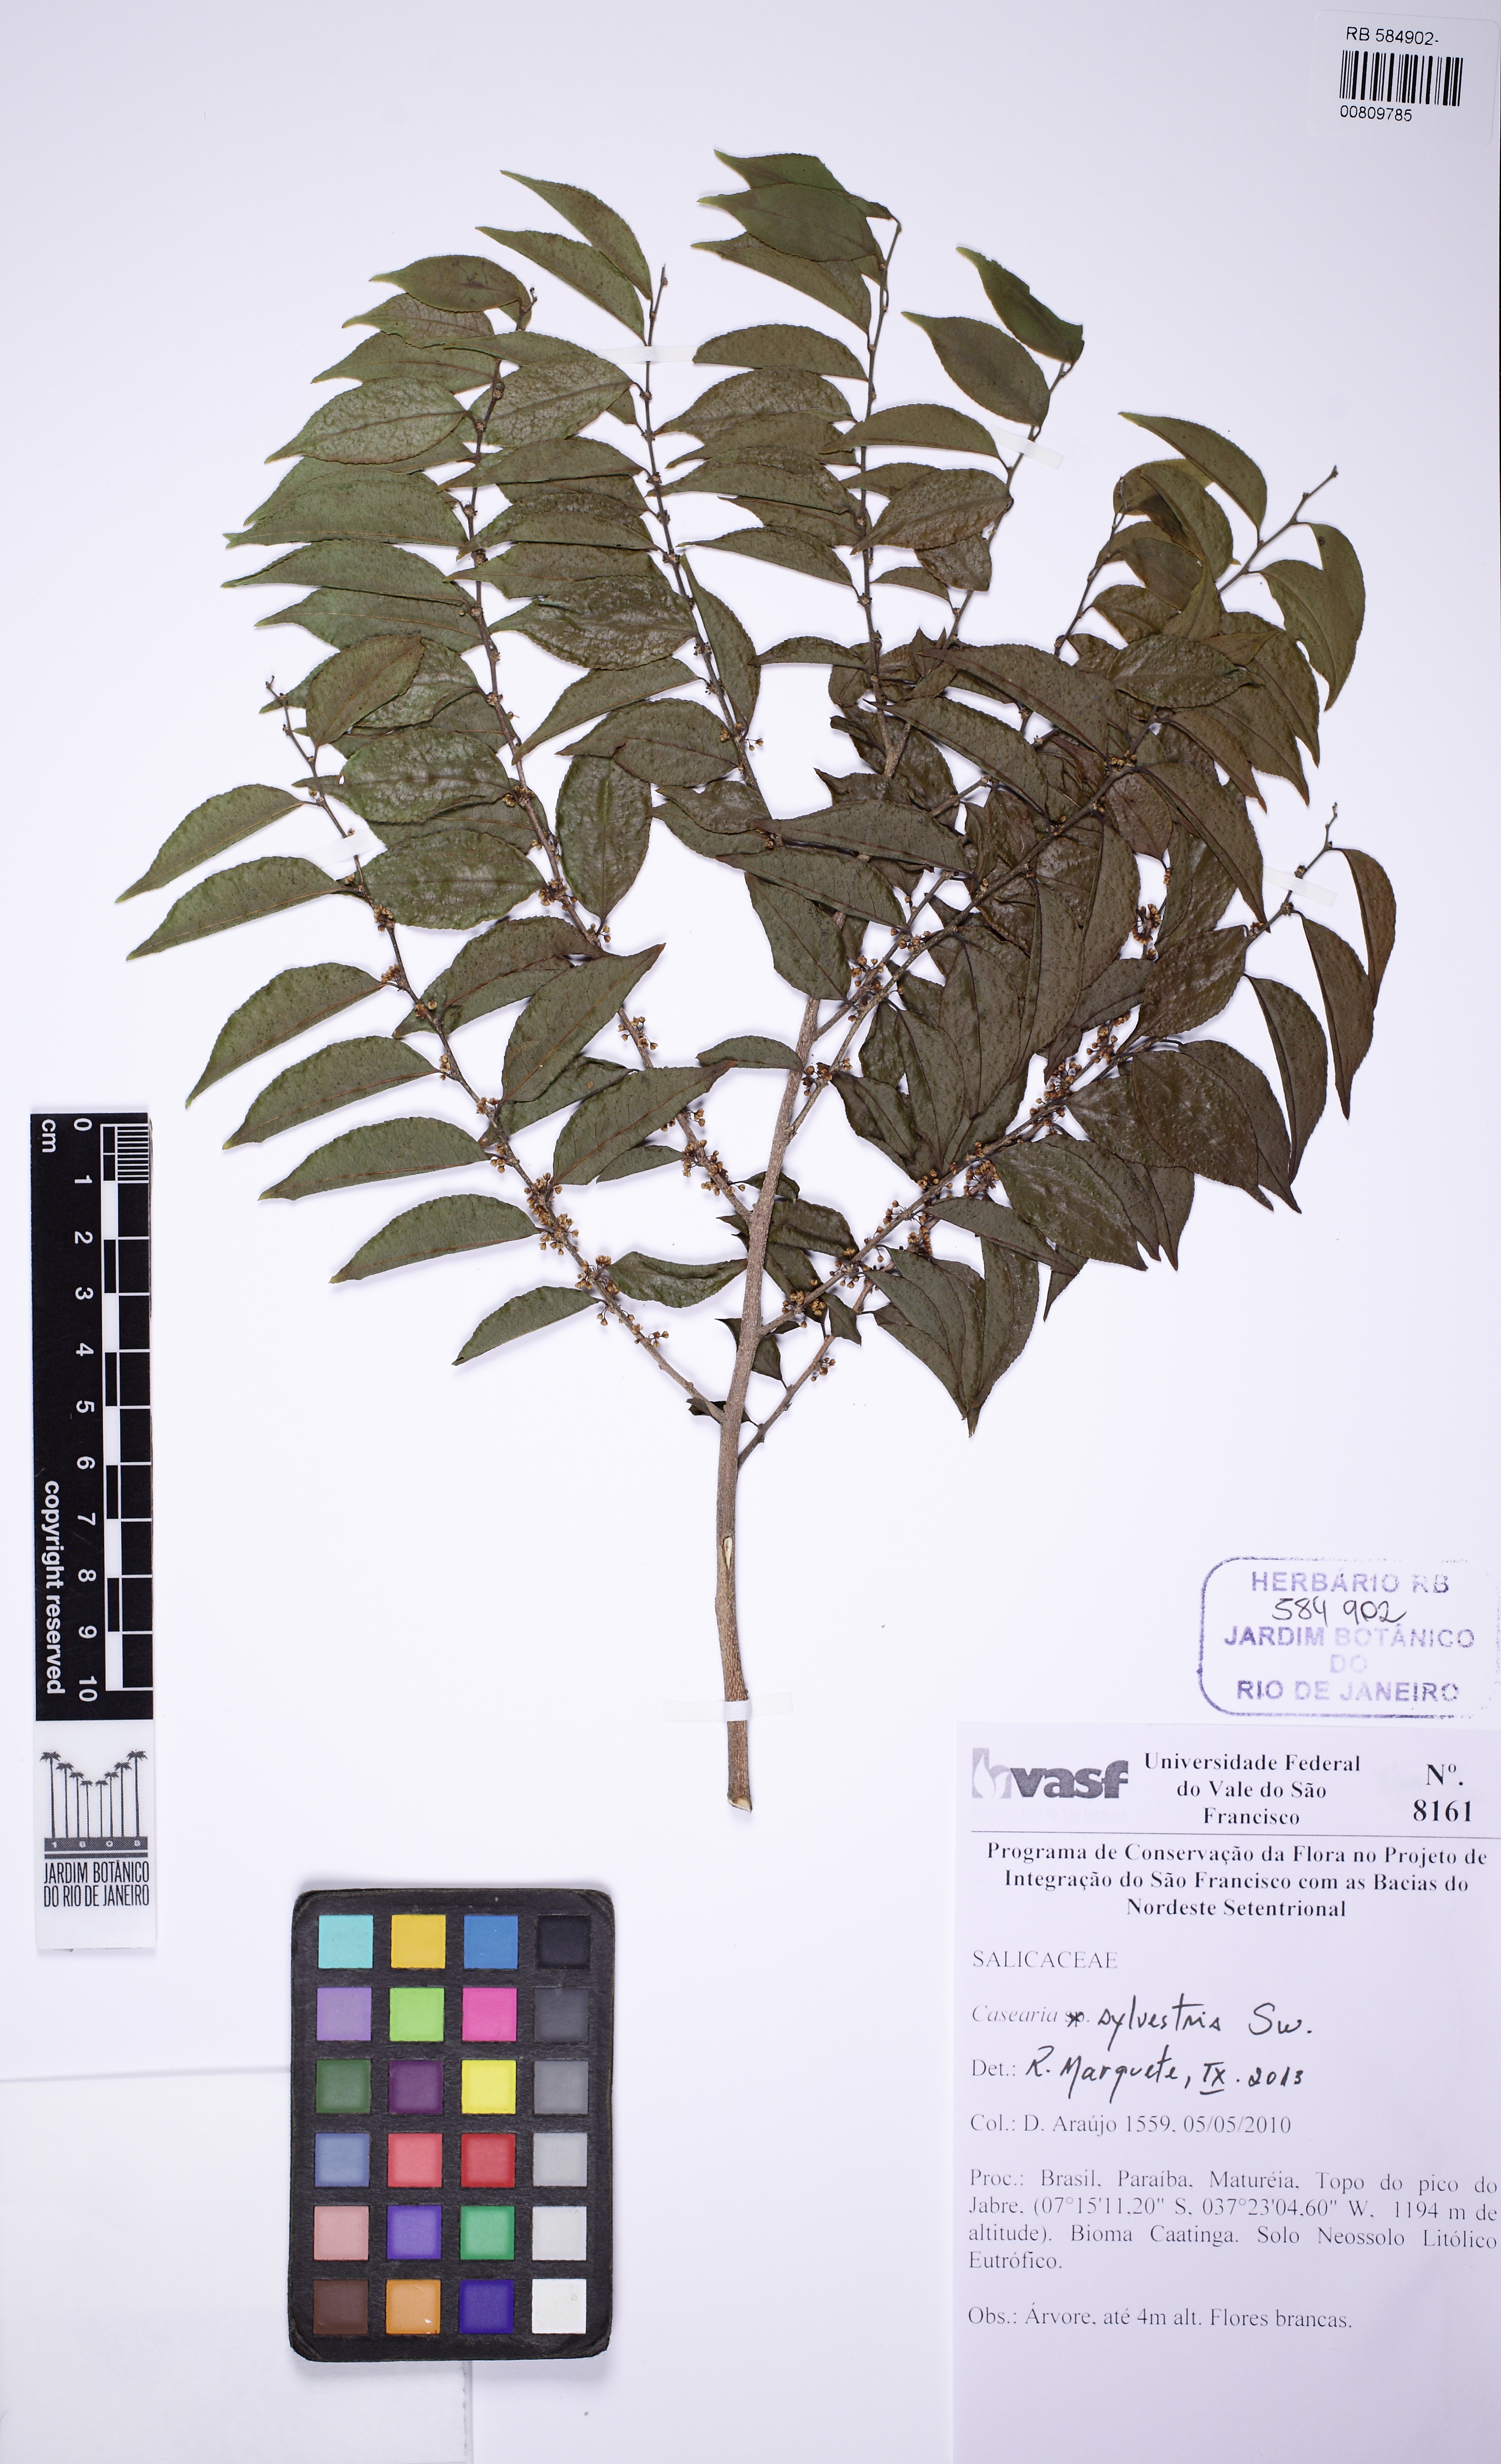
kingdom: Plantae
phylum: Tracheophyta
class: Magnoliopsida
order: Malpighiales
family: Salicaceae
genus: Casearia
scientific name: Casearia sylvestris
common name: Wild sage
